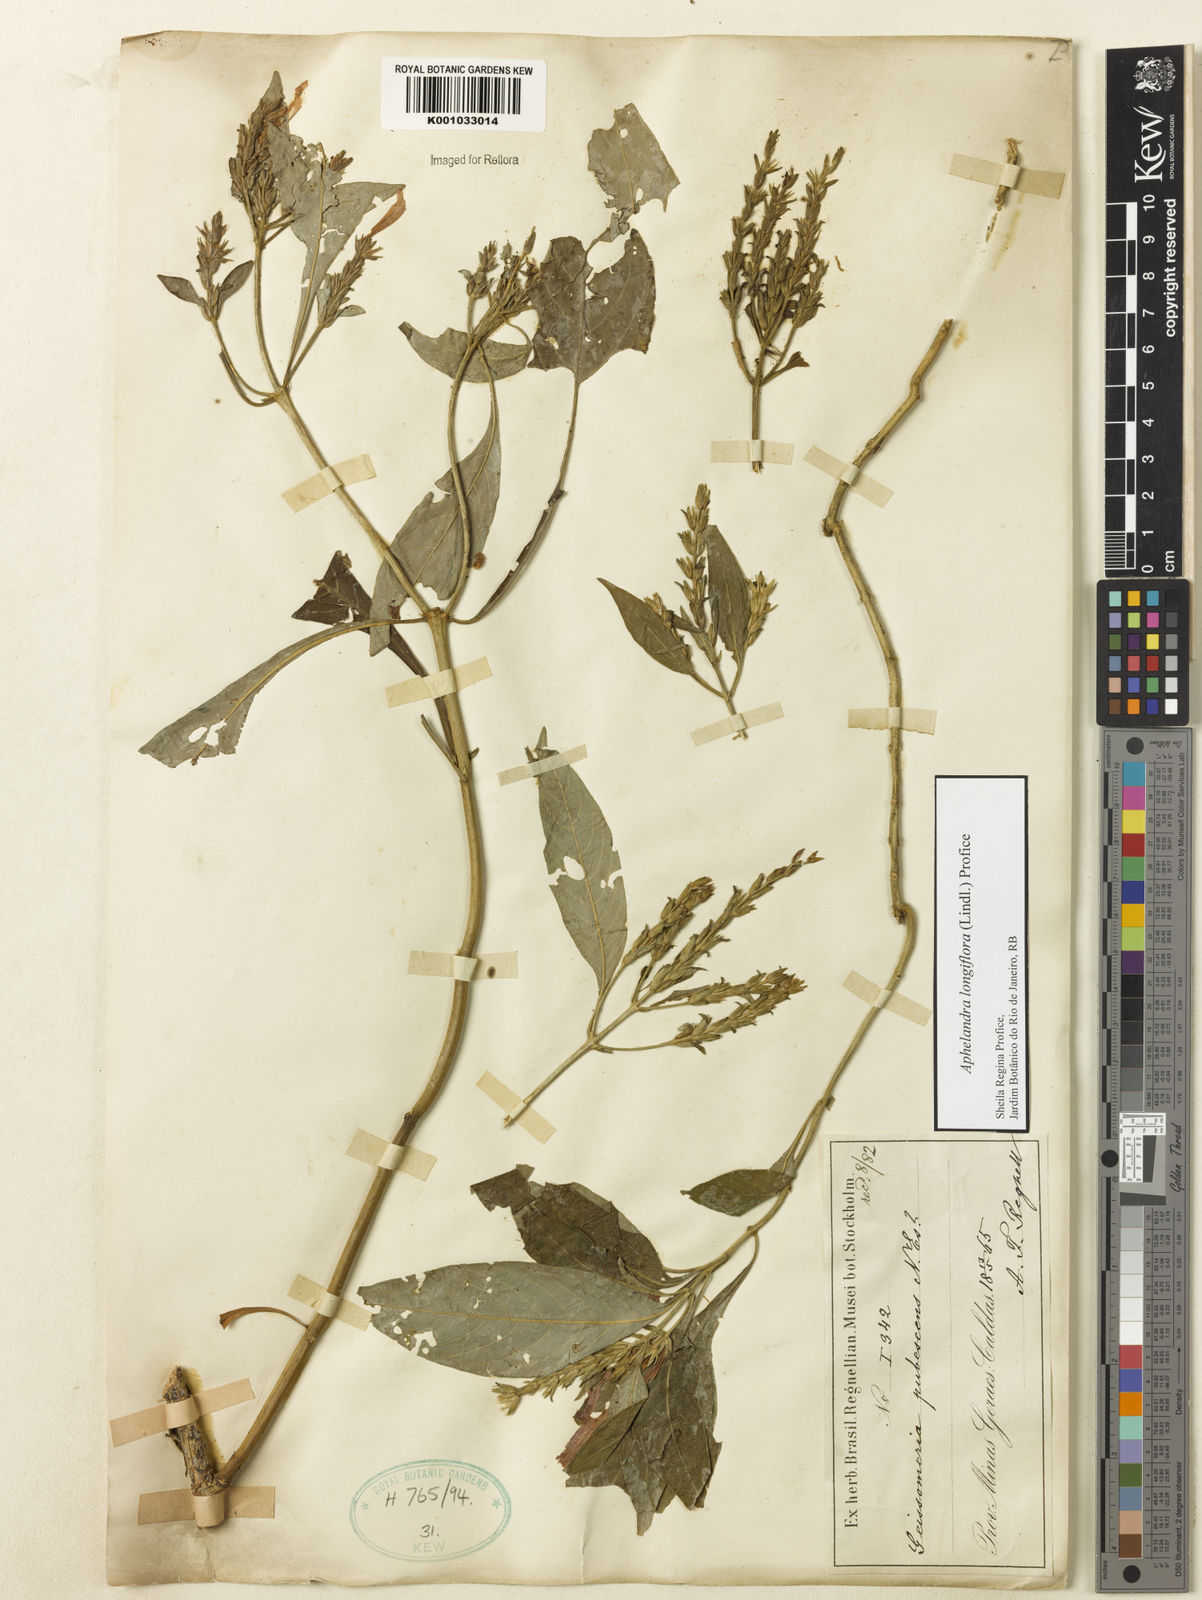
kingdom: Plantae
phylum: Tracheophyta
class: Magnoliopsida
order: Lamiales
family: Acanthaceae
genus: Aphelandra
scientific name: Aphelandra longiflora
